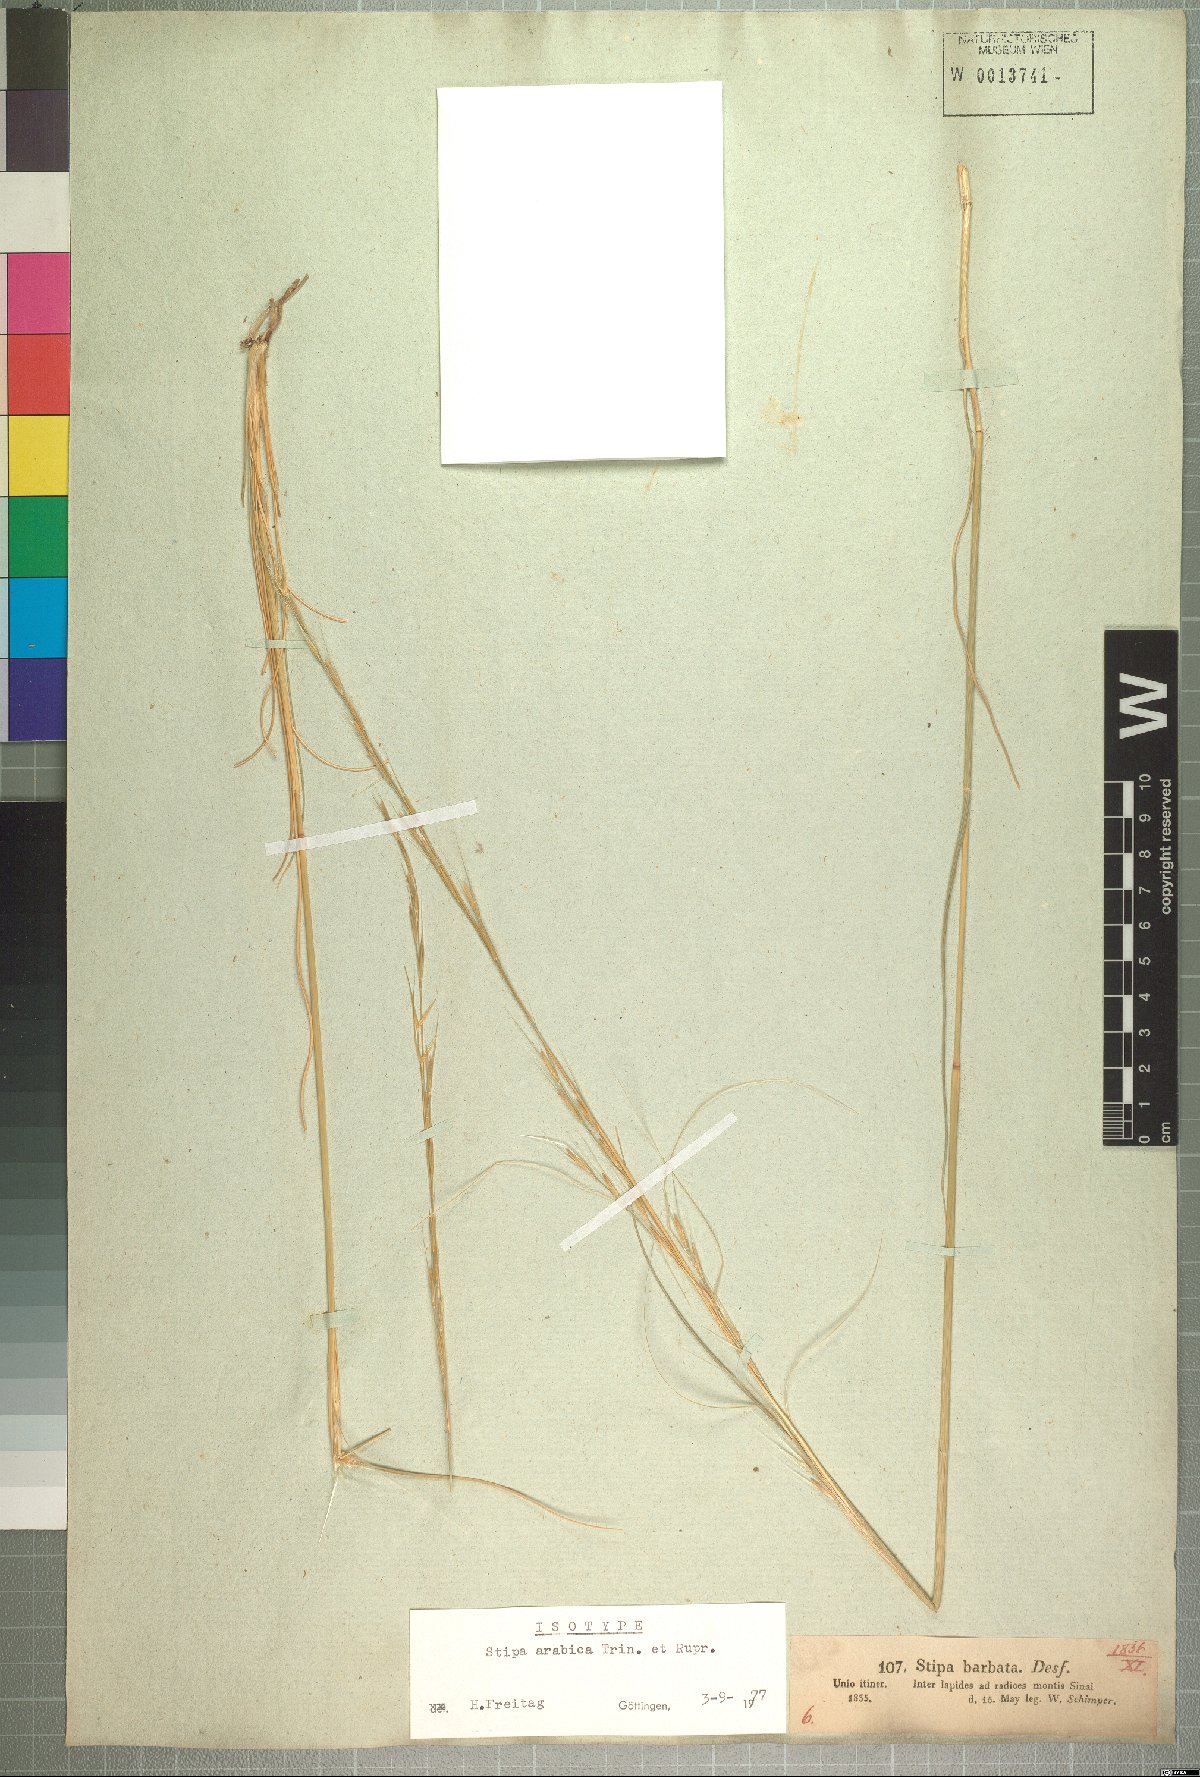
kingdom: Plantae
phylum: Tracheophyta
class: Liliopsida
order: Poales
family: Poaceae
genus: Stipa
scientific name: Stipa arabica
